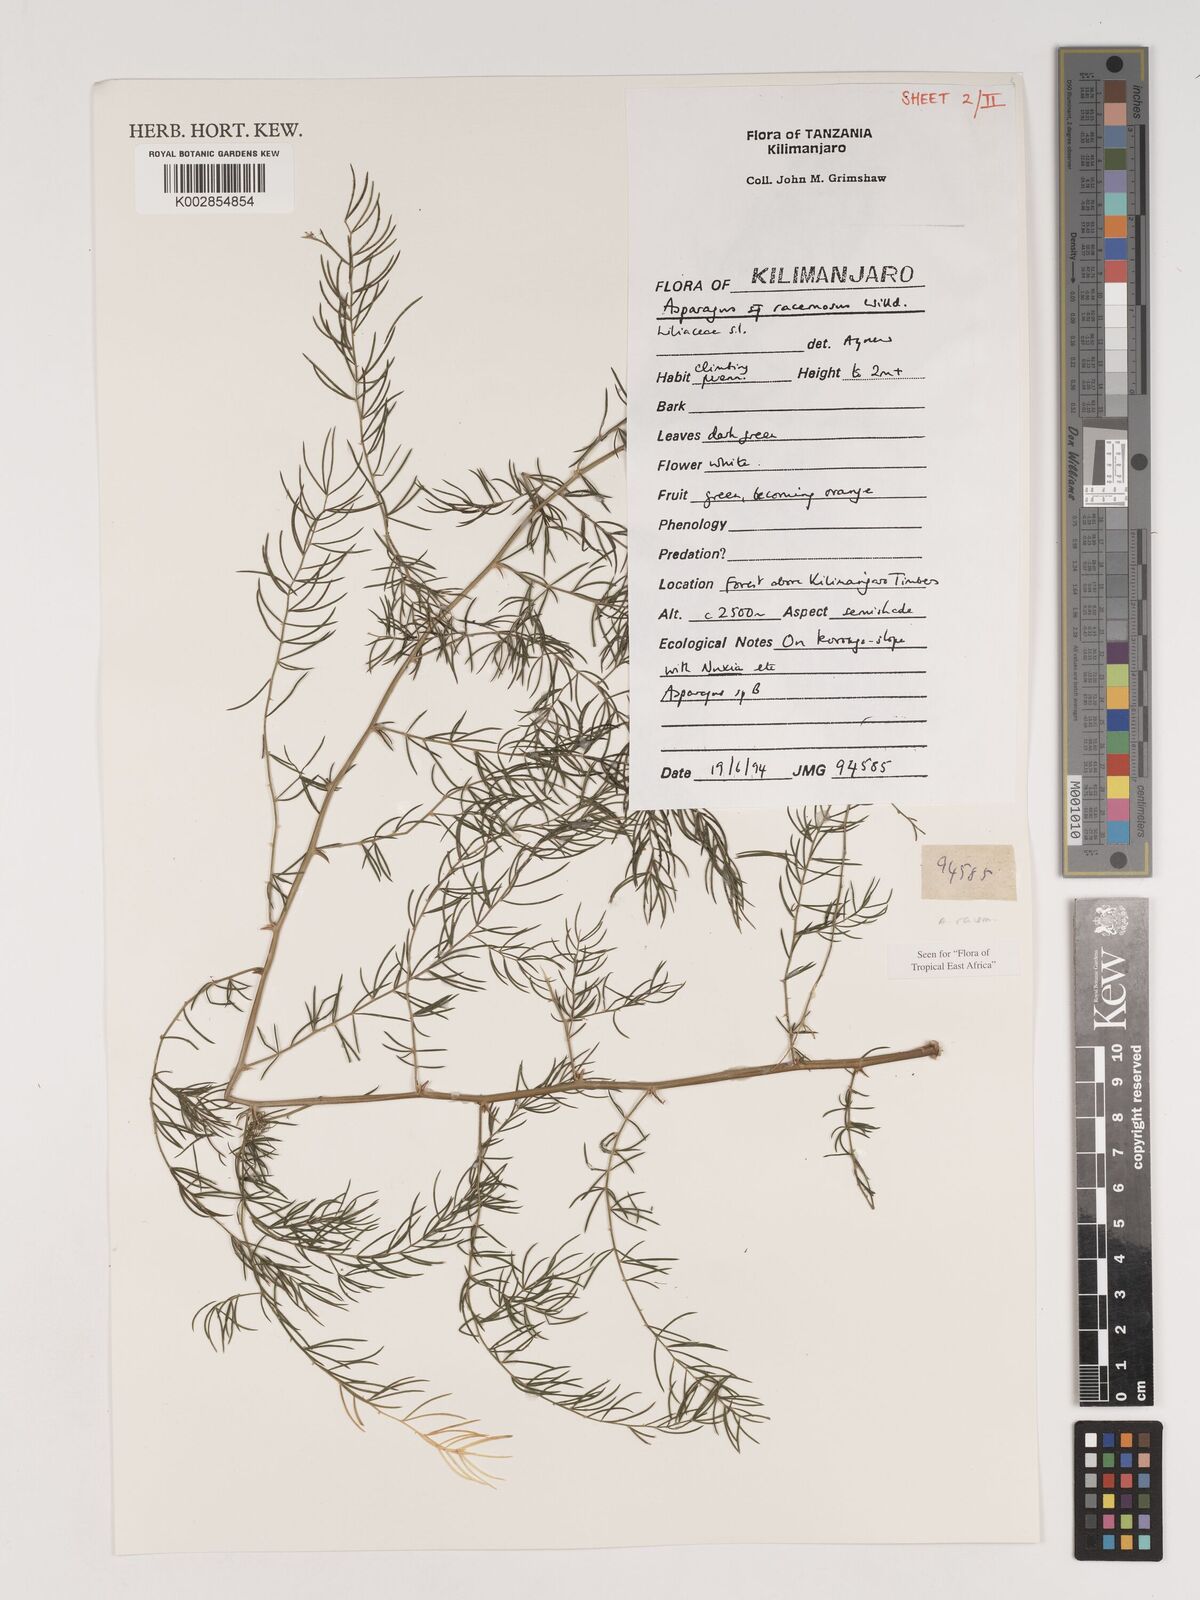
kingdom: Plantae
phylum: Tracheophyta
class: Liliopsida
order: Asparagales
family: Asparagaceae
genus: Asparagus
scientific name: Asparagus racemosus
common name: Asparagus-fern
